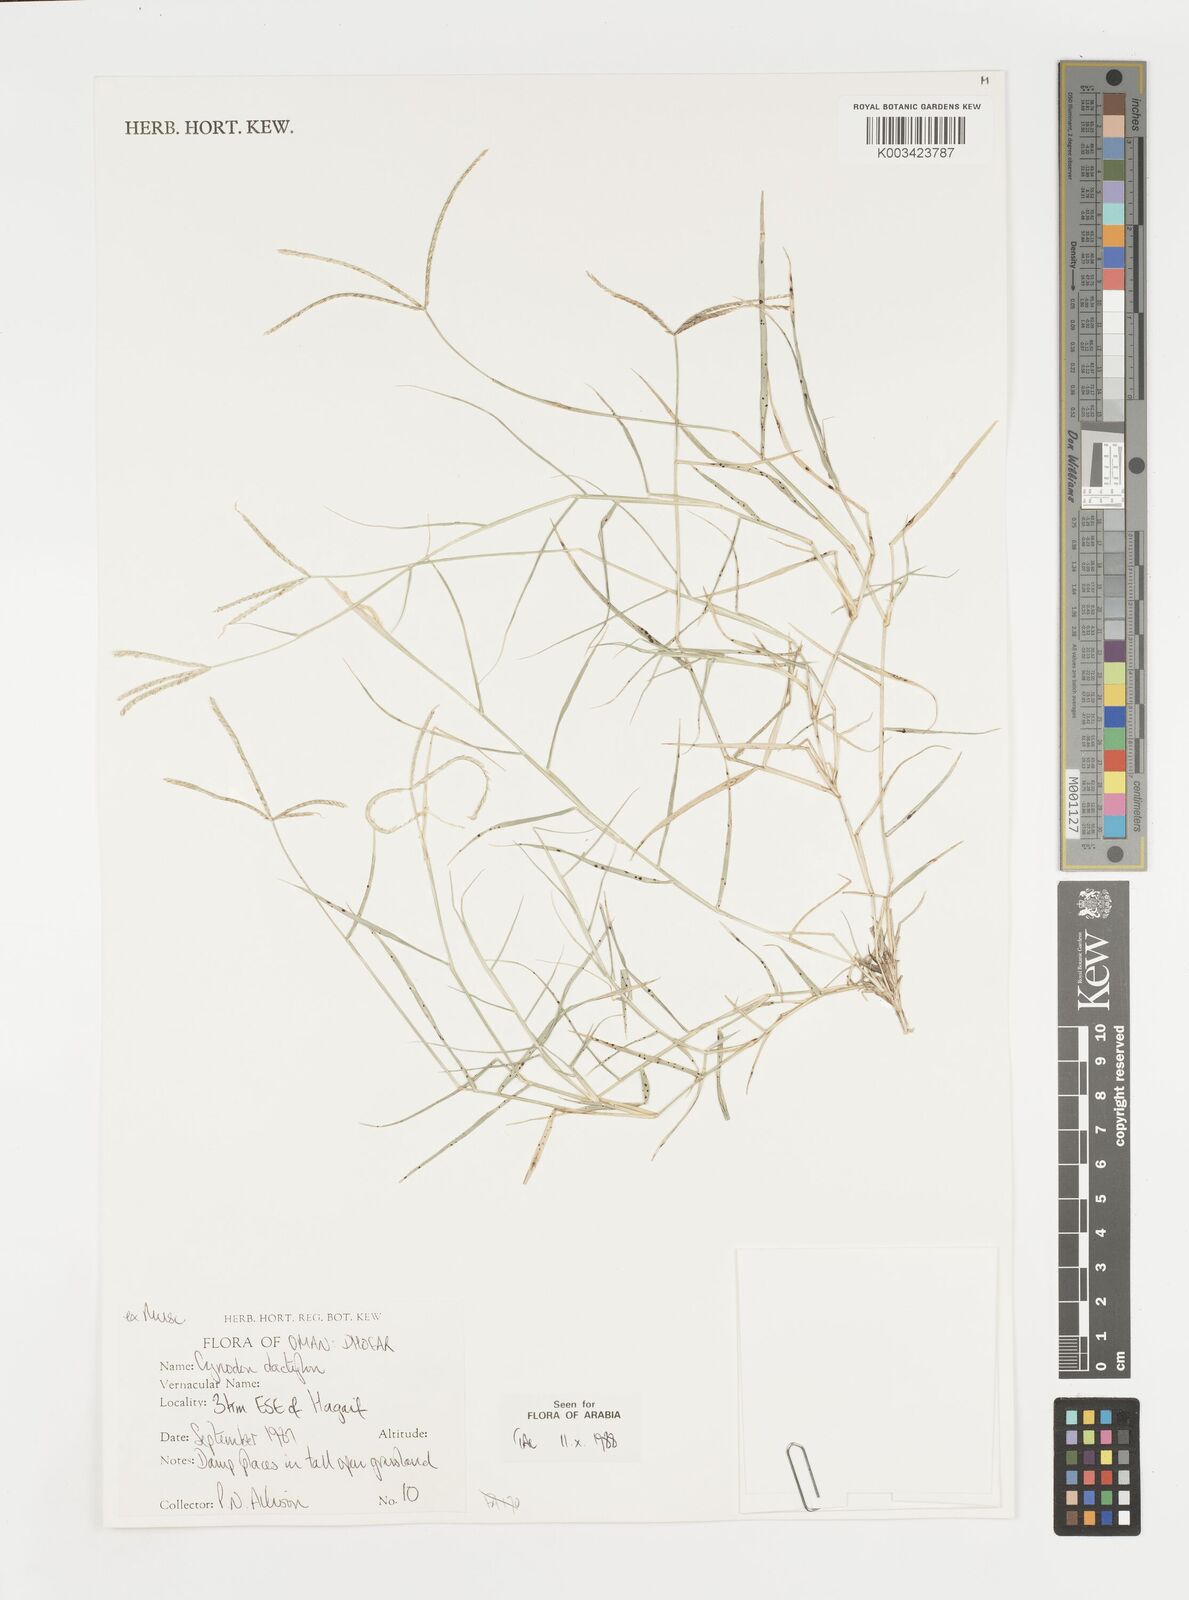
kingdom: Plantae
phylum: Tracheophyta
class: Liliopsida
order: Poales
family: Poaceae
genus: Cynodon
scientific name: Cynodon dactylon
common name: Bermuda grass
